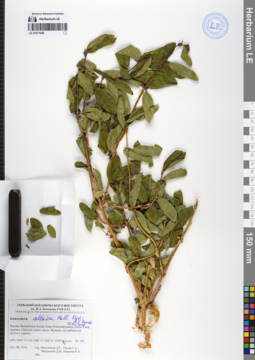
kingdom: Plantae
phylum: Tracheophyta
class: Magnoliopsida
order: Dipsacales
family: Caprifoliaceae
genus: Lonicera
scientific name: Lonicera caerulea
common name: Blue honeysuckle
